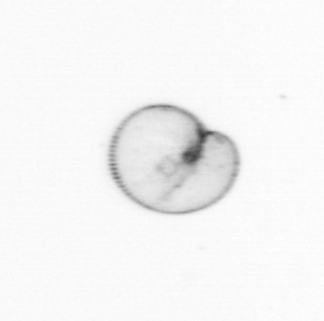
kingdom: Chromista
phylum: Myzozoa
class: Dinophyceae
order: Noctilucales
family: Noctilucaceae
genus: Noctiluca
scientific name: Noctiluca scintillans
